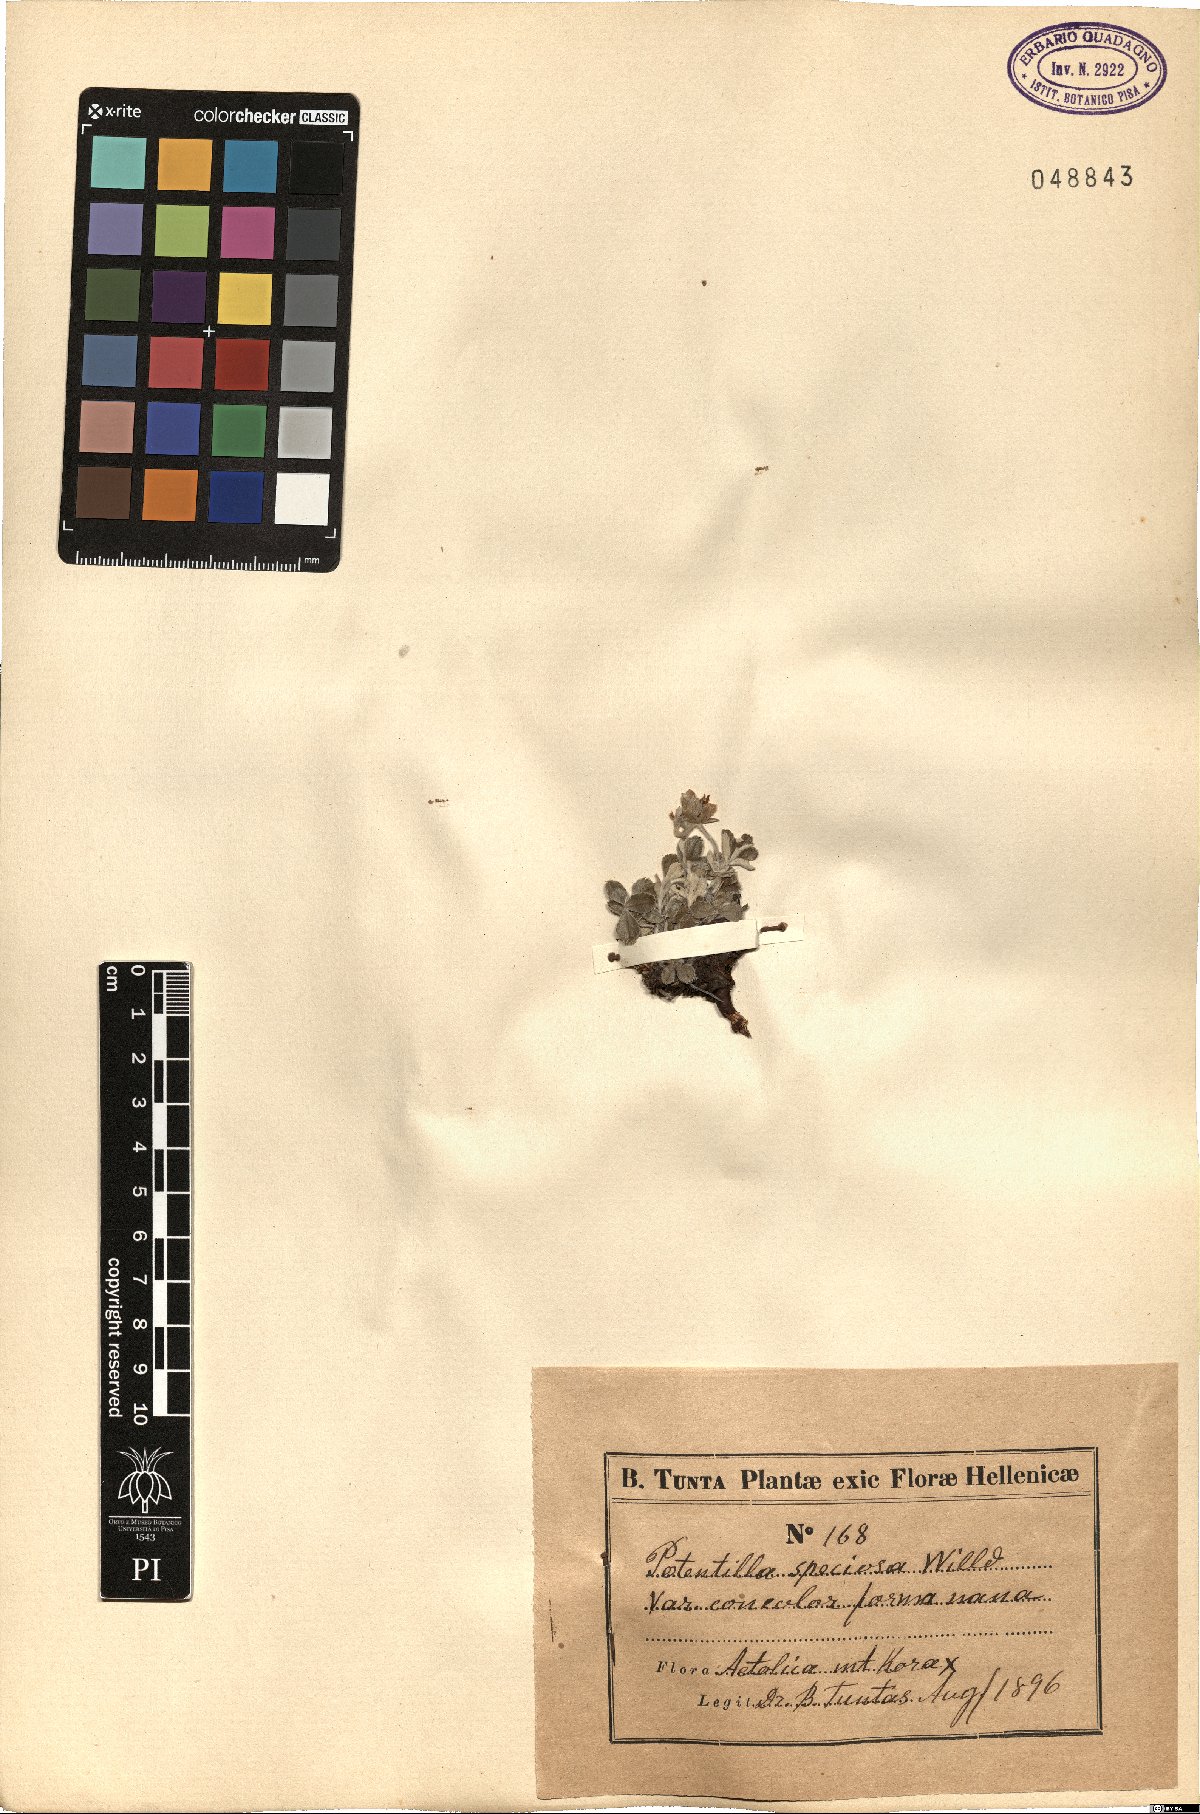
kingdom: Plantae
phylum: Tracheophyta
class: Magnoliopsida
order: Rosales
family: Rosaceae
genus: Potentilla
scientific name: Potentilla speciosa
